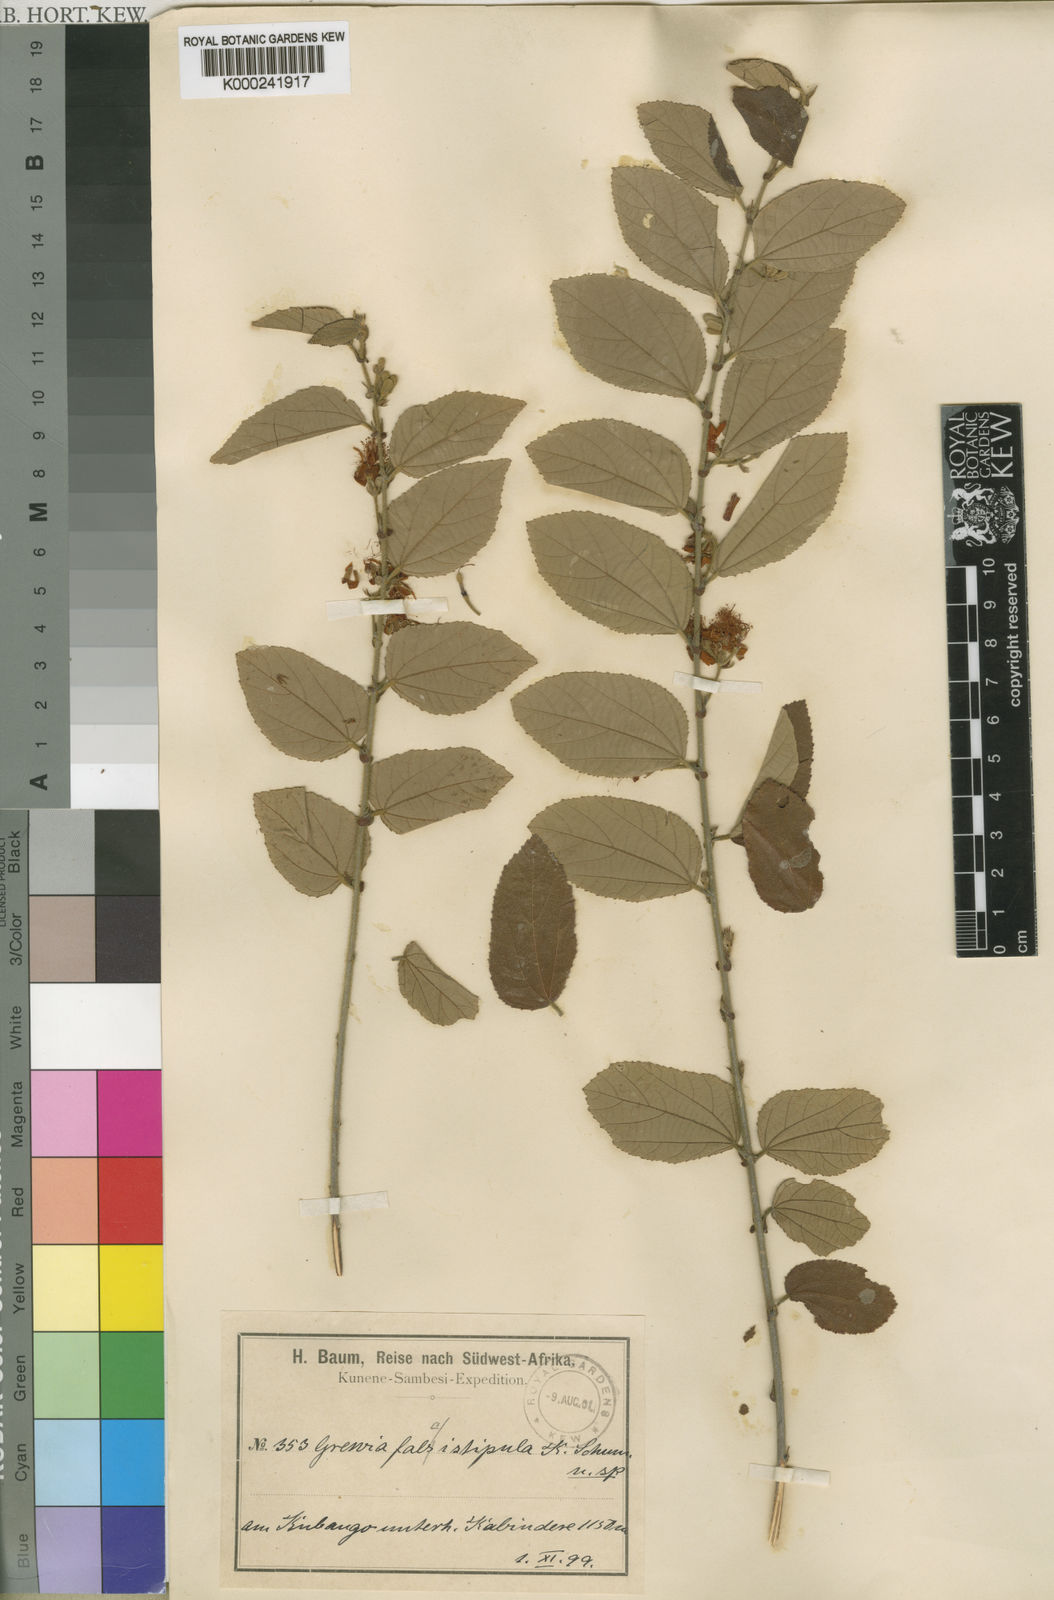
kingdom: Plantae
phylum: Tracheophyta
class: Magnoliopsida
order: Malvales
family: Malvaceae
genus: Grewia
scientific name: Grewia falcistipula
